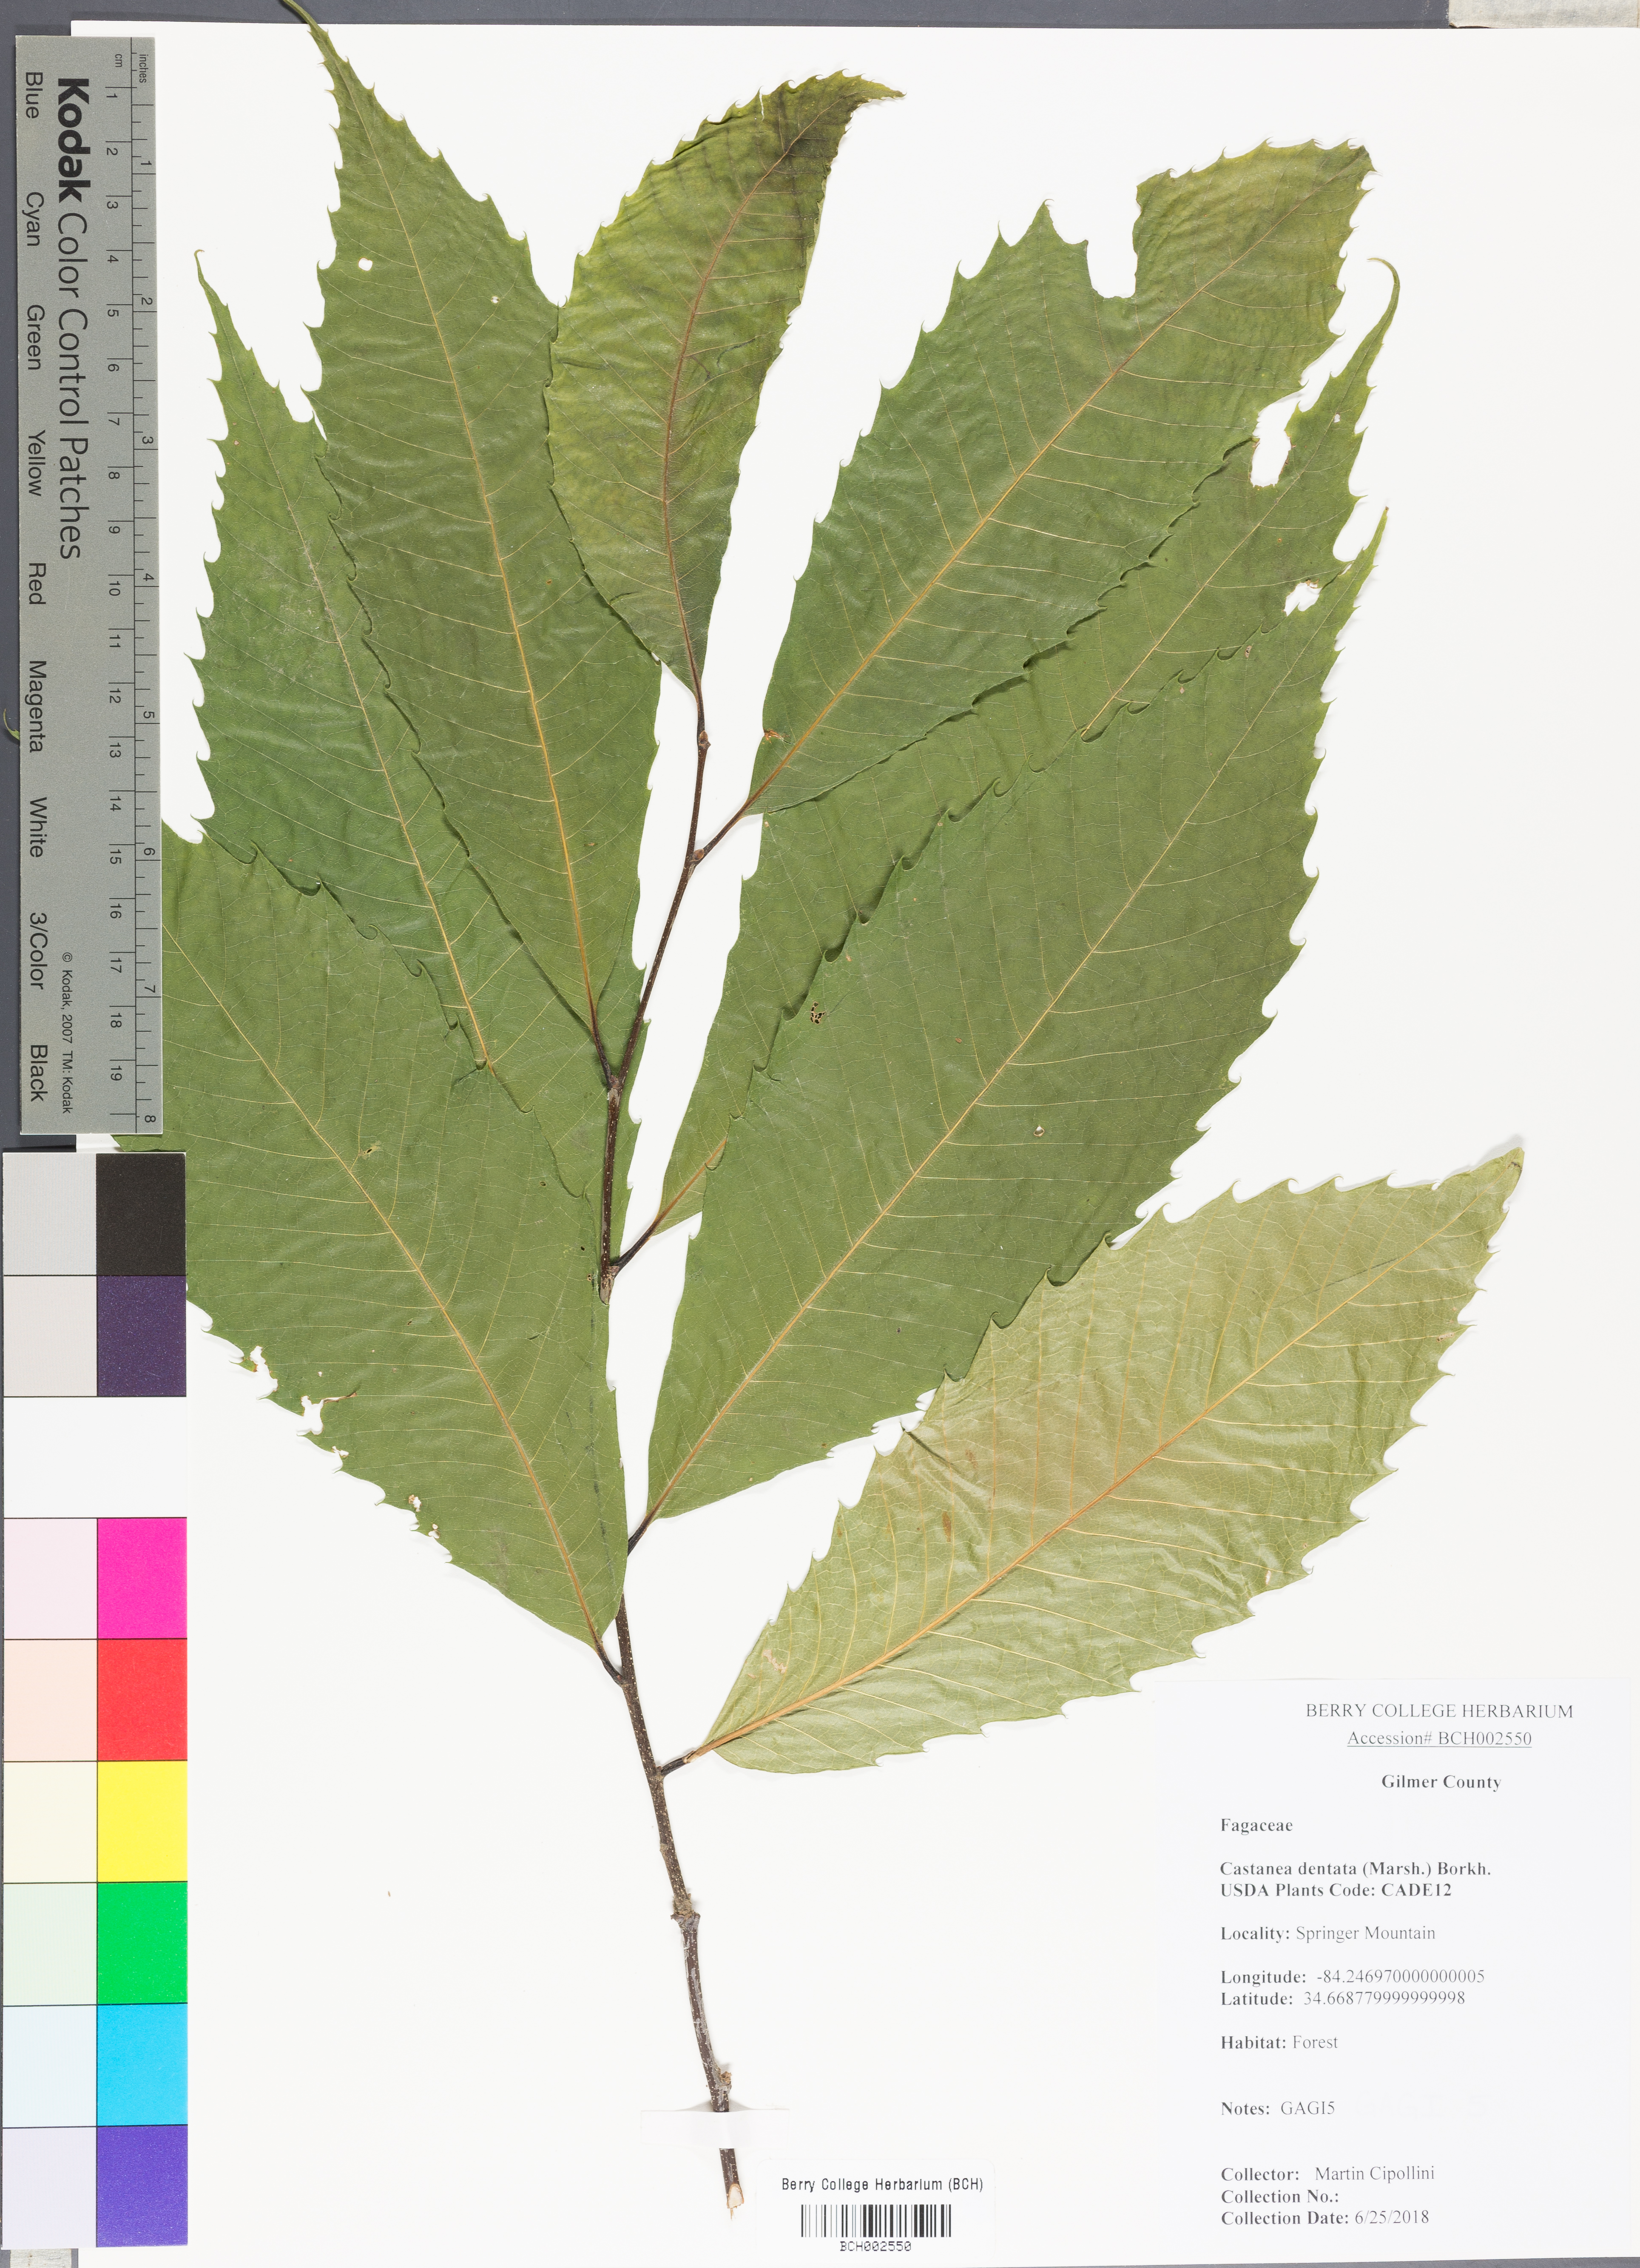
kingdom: Plantae
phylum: Tracheophyta
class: Magnoliopsida
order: Fagales
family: Fagaceae
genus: Castanea
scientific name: Castanea dentata
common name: American chestnut
